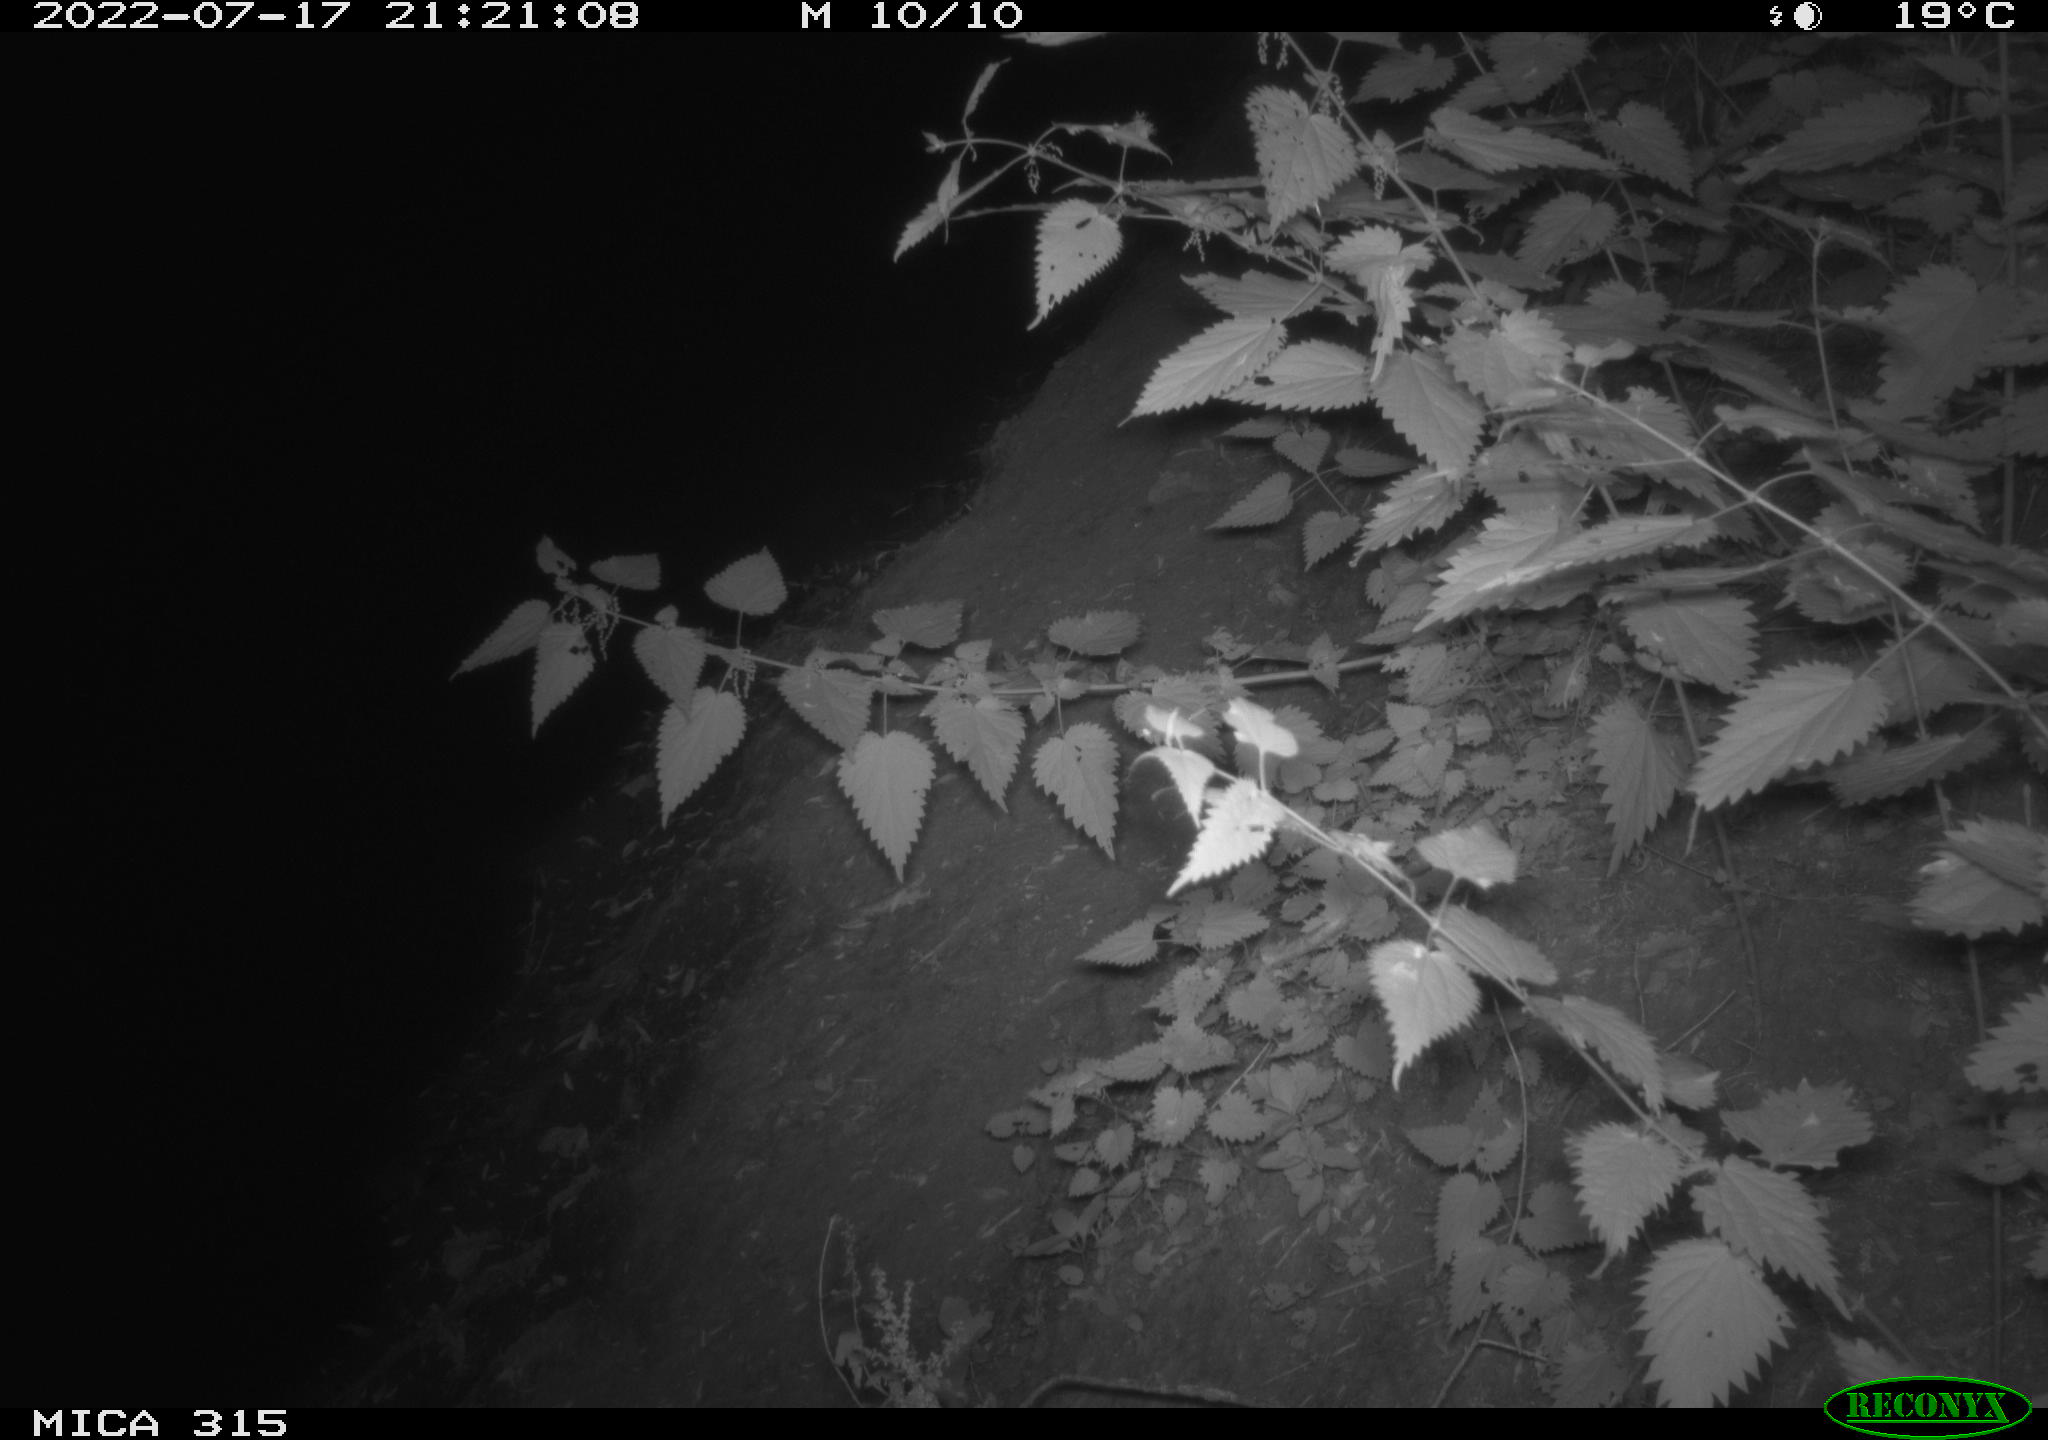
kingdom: Animalia
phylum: Chordata
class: Mammalia
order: Carnivora
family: Canidae
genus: Vulpes
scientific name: Vulpes vulpes
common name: Red fox
